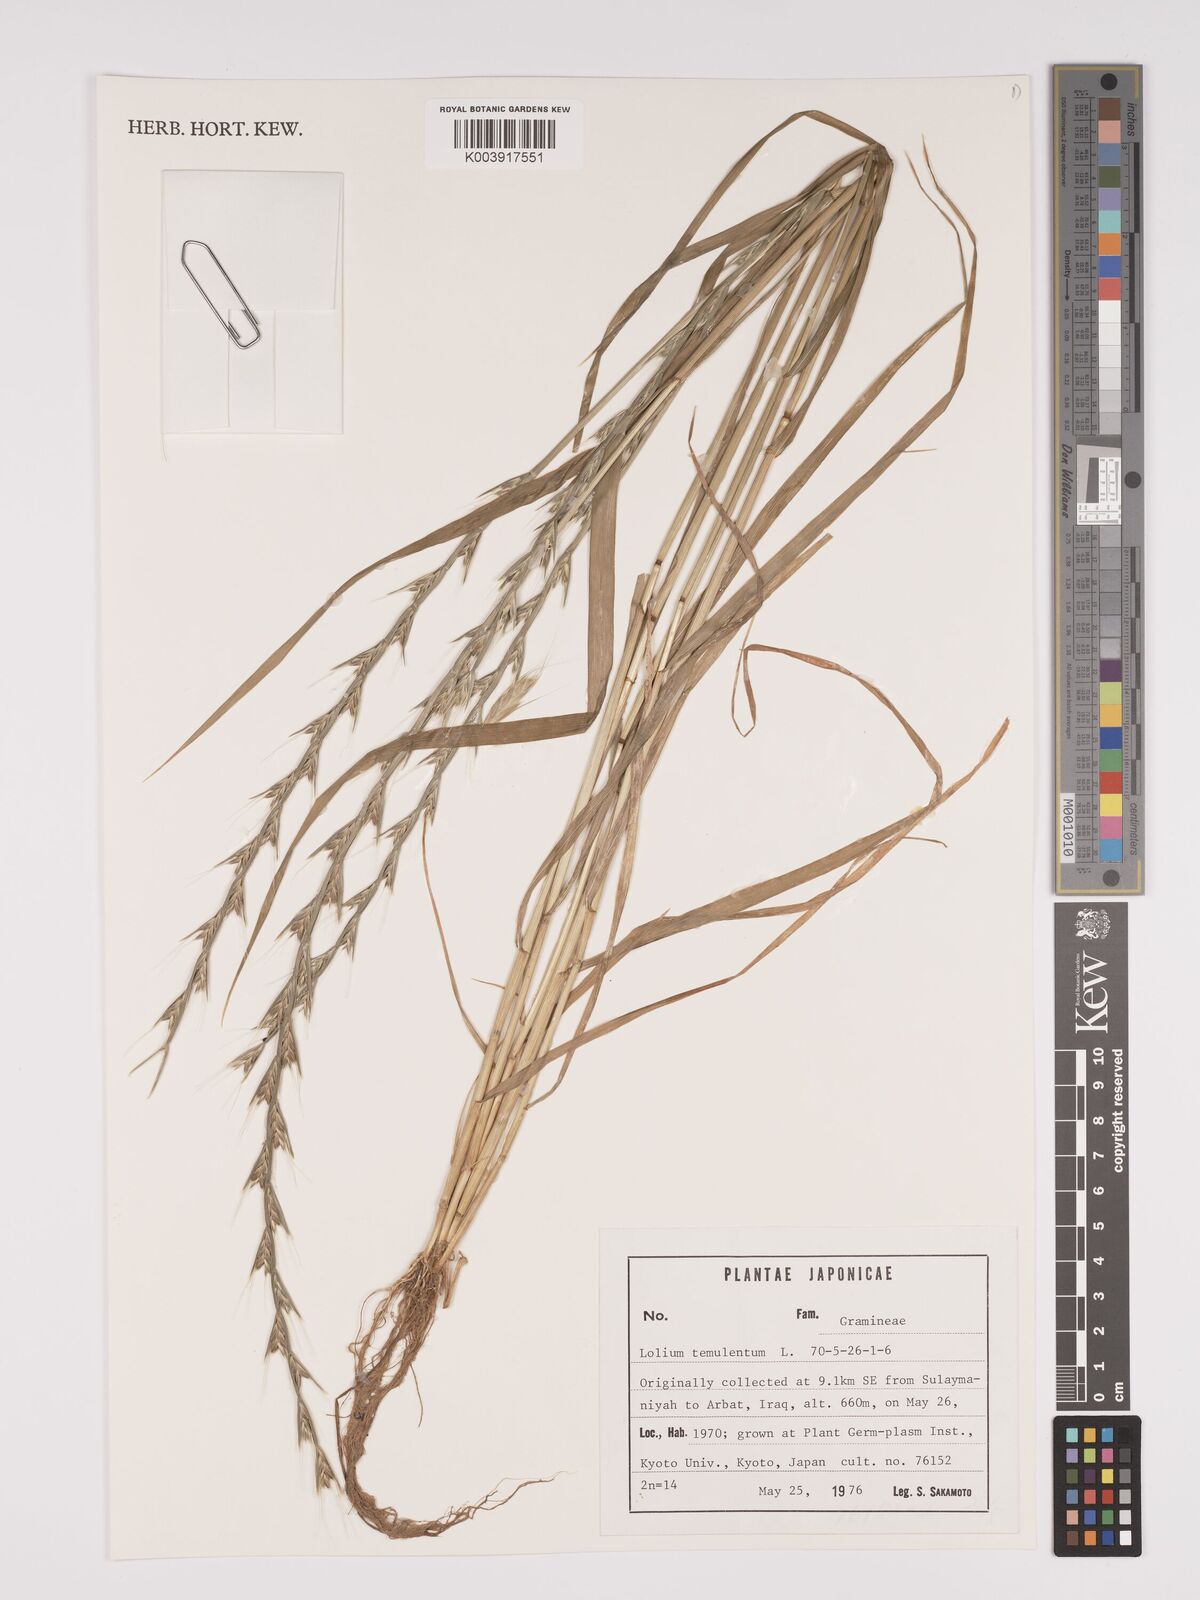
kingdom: Plantae
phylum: Tracheophyta
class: Liliopsida
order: Poales
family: Poaceae
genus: Lolium
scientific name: Lolium temulentum
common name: Darnel
